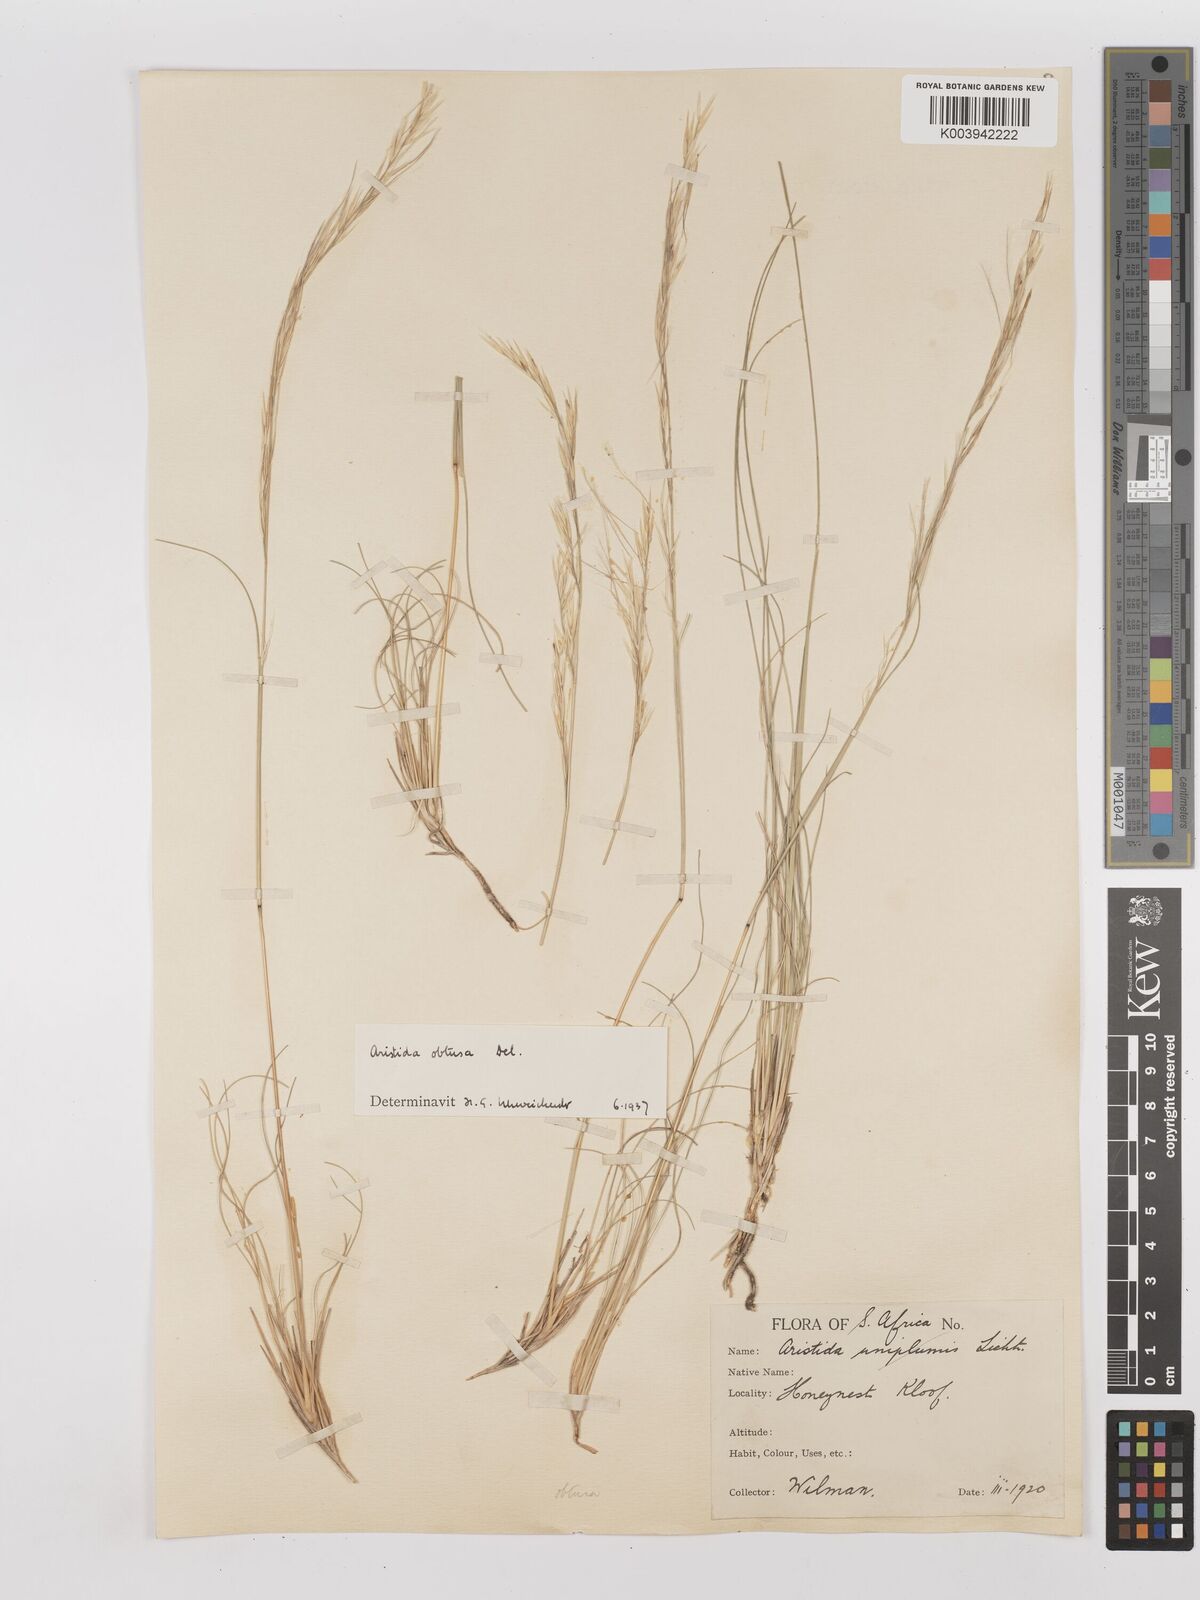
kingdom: Plantae
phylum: Tracheophyta
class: Liliopsida
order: Poales
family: Poaceae
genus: Stipagrostis
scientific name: Stipagrostis obtusa
